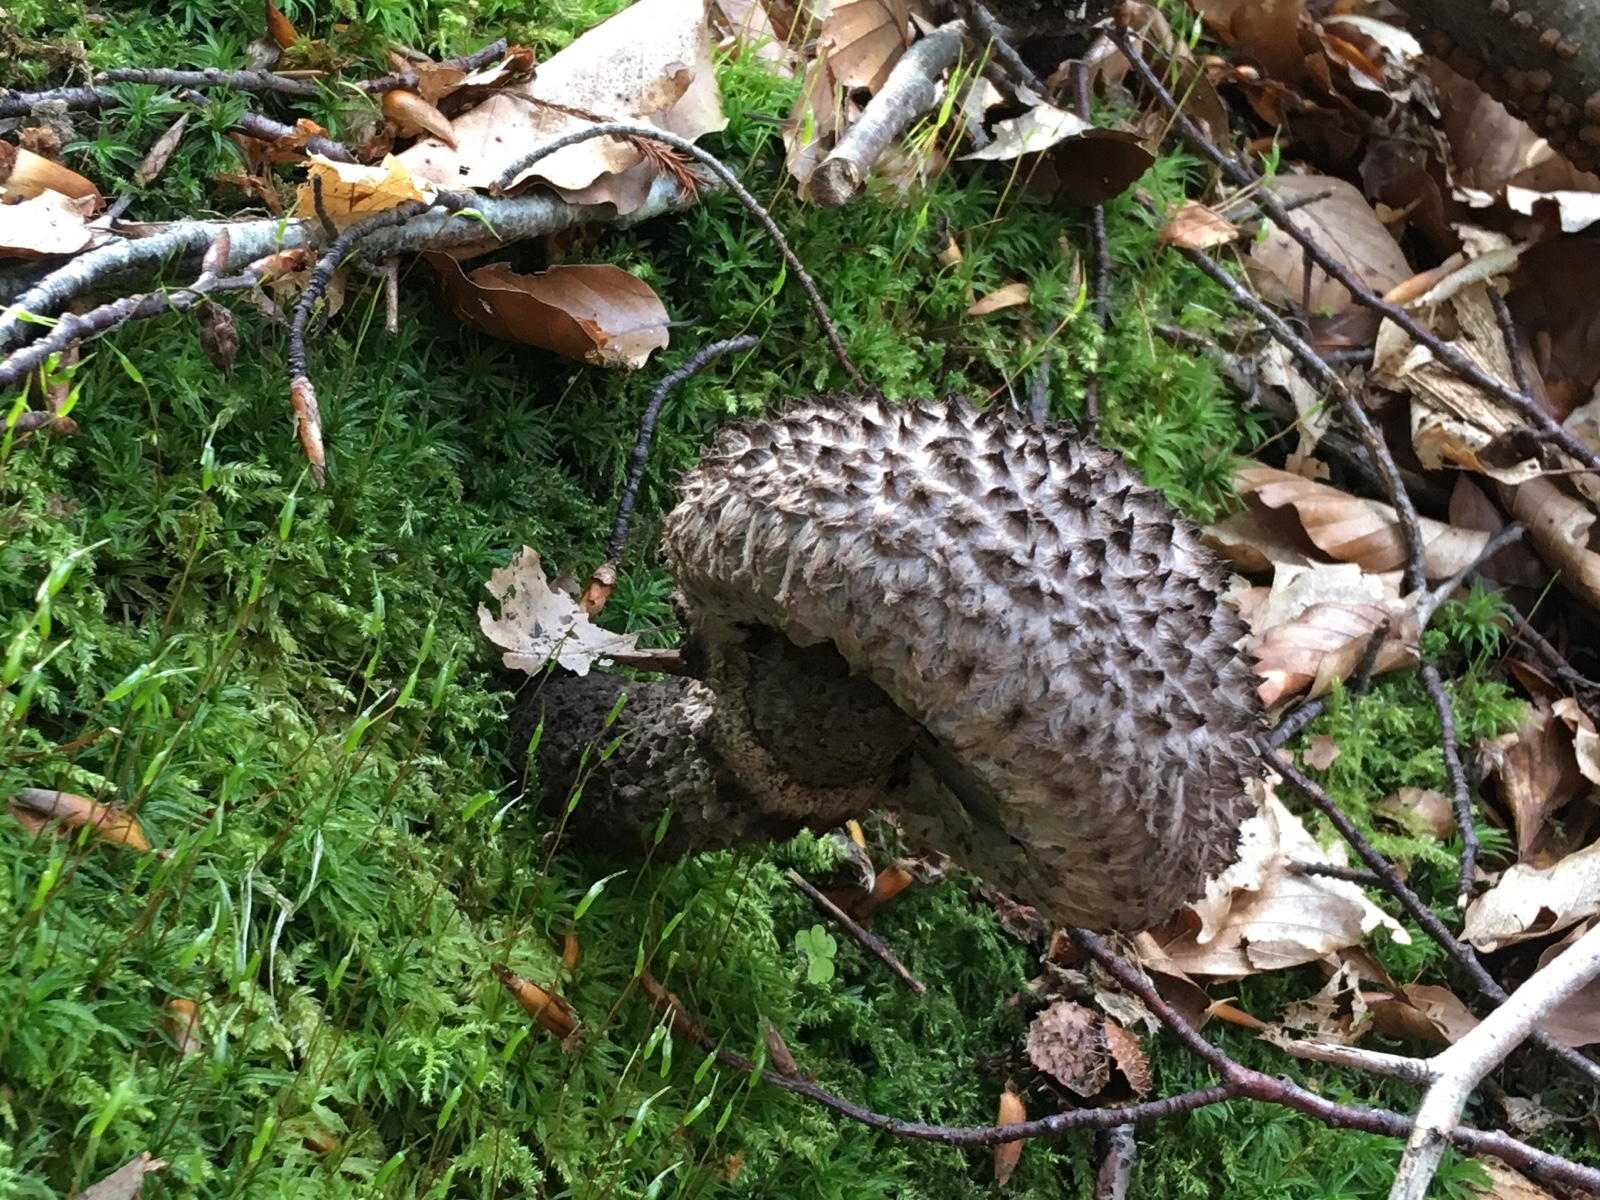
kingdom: Fungi
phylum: Basidiomycota
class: Agaricomycetes
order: Boletales
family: Boletaceae
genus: Strobilomyces
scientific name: Strobilomyces strobilaceus
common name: koglerørhat
